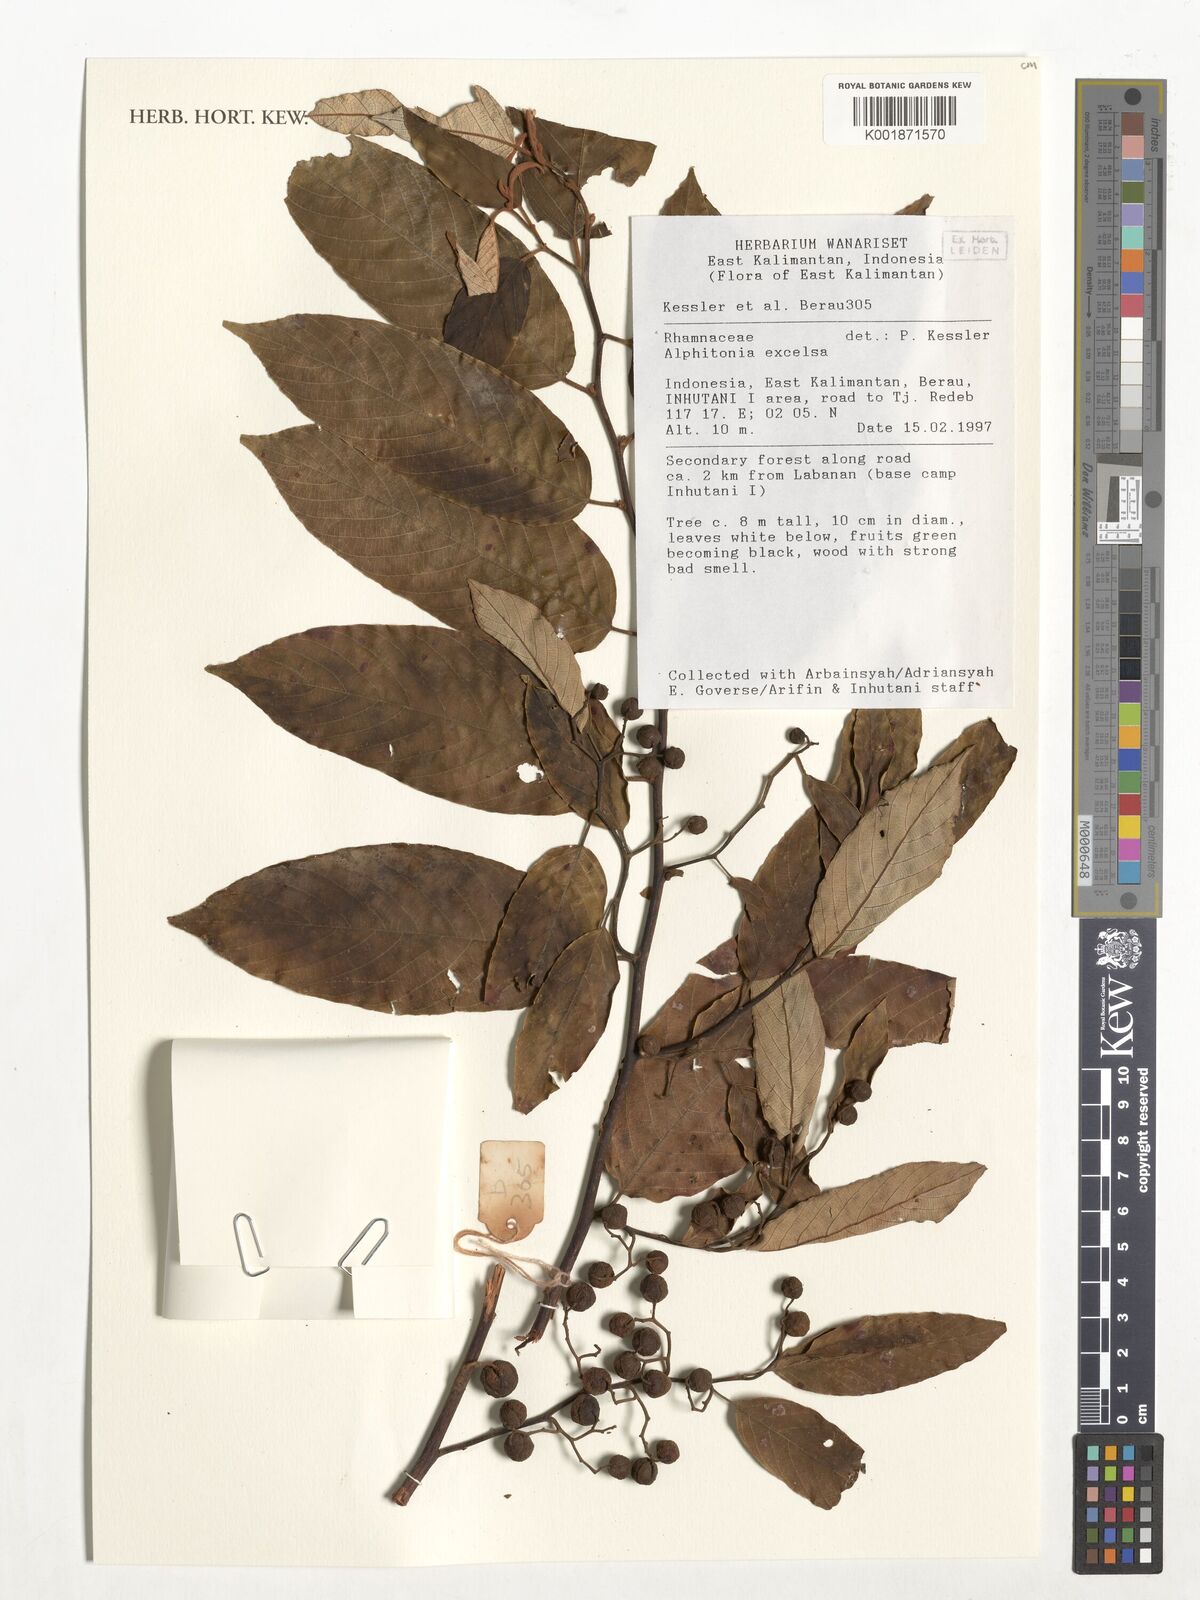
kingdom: Plantae
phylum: Tracheophyta
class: Magnoliopsida
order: Rosales
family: Rhamnaceae
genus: Alphitonia
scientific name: Alphitonia excelsa
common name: Red ash
